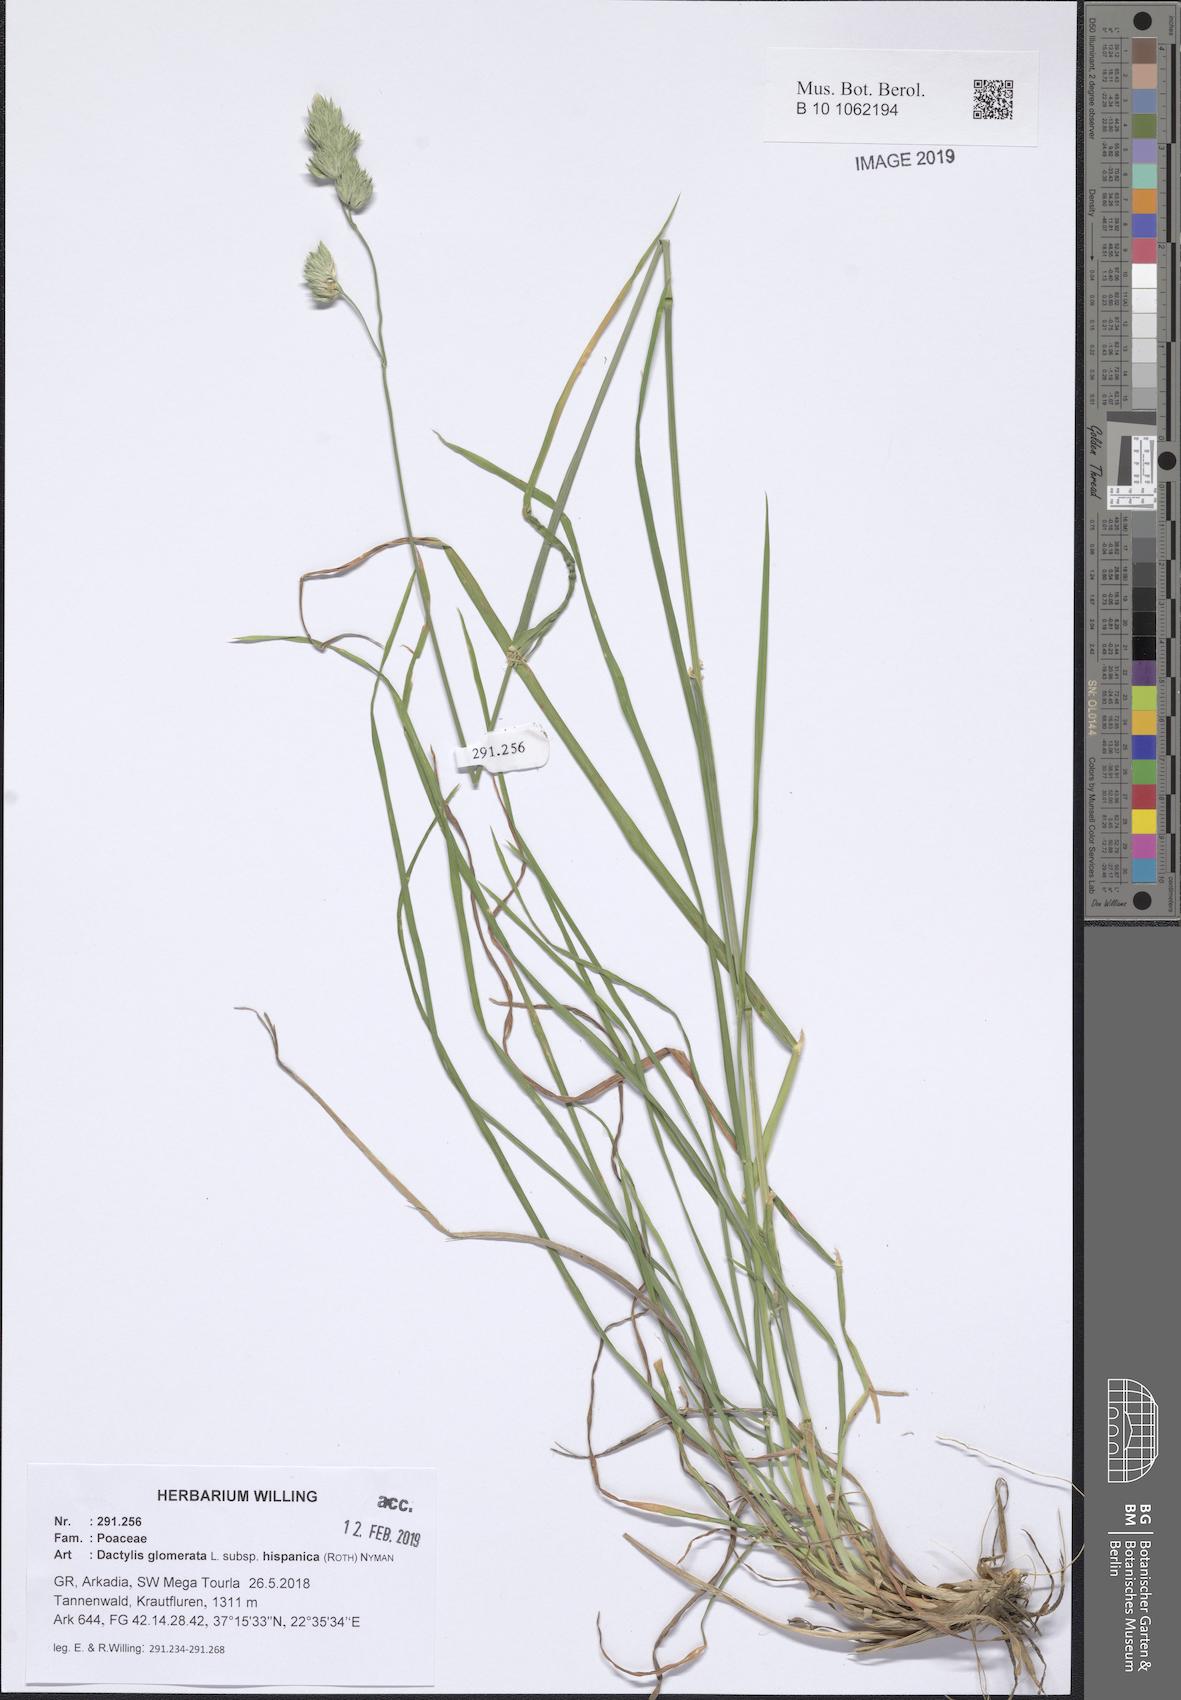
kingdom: Plantae
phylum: Tracheophyta
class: Liliopsida
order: Poales
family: Poaceae
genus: Dactylis
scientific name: Dactylis glomerata
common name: Orchardgrass
